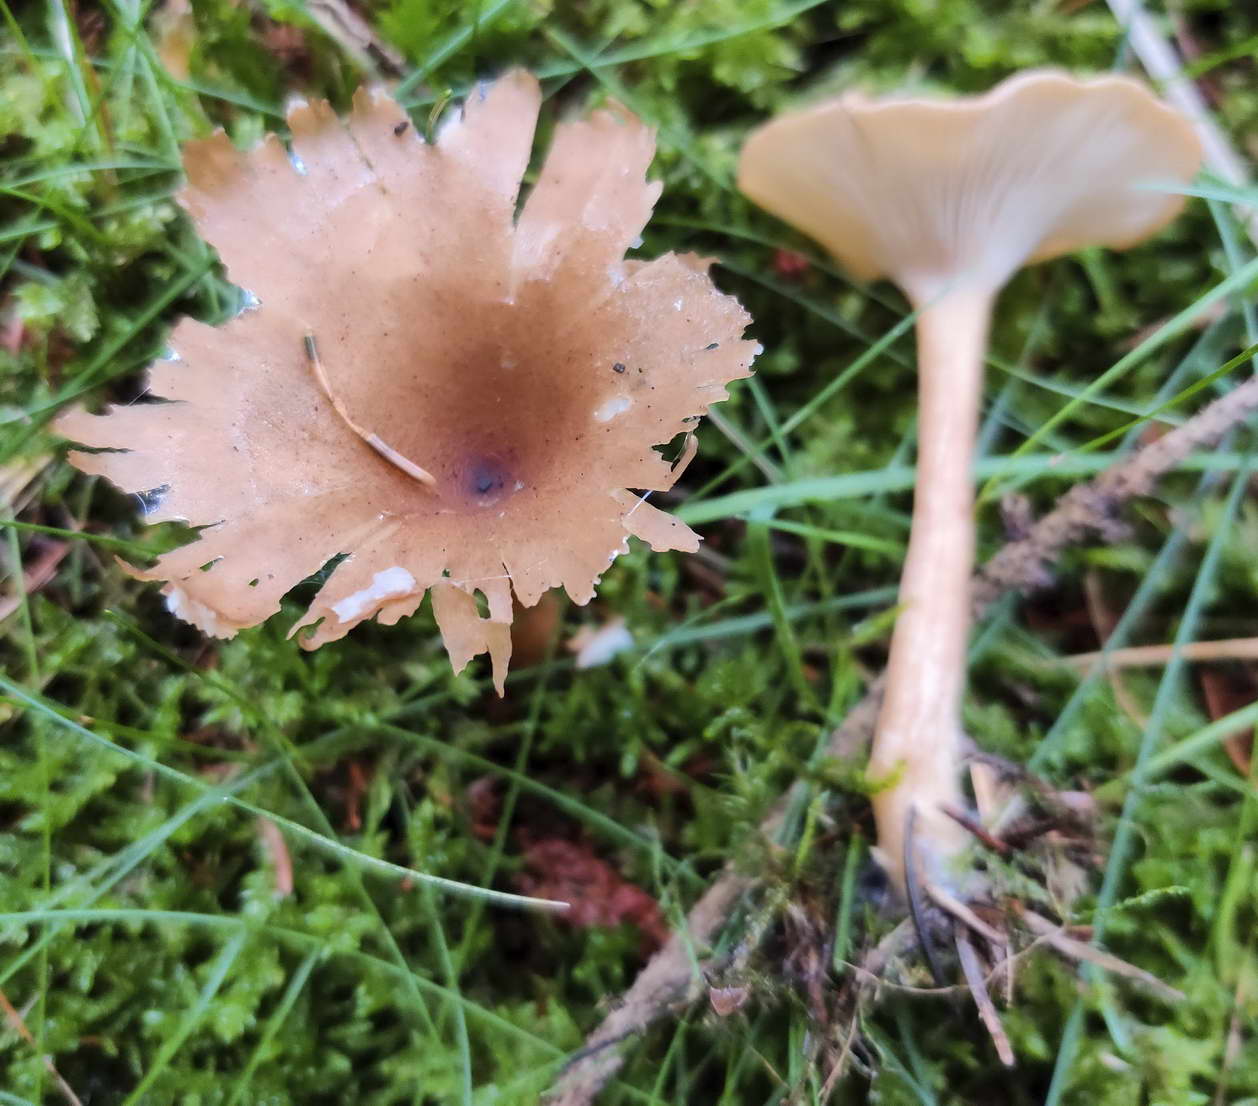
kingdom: Fungi
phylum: Basidiomycota
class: Agaricomycetes
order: Agaricales
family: Tricholomataceae
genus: Infundibulicybe
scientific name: Infundibulicybe squamulosa
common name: småskællet tragthat
